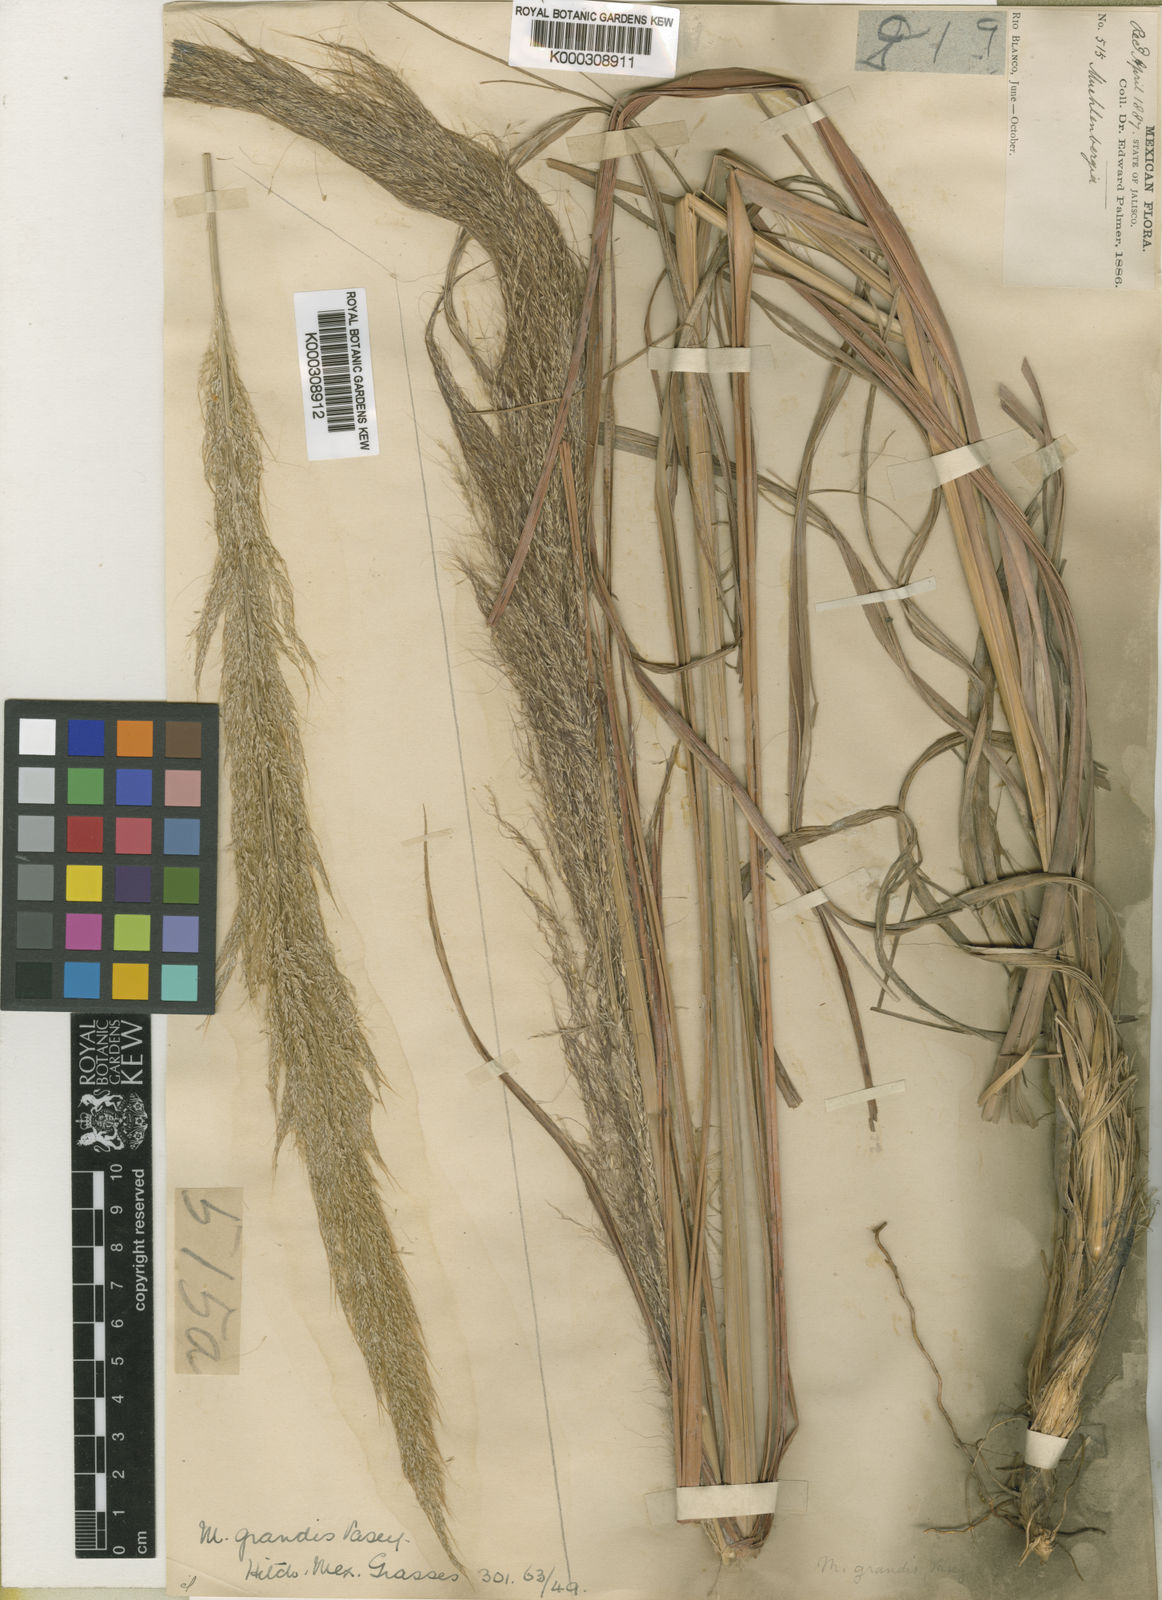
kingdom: Plantae
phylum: Tracheophyta
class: Liliopsida
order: Poales
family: Poaceae
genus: Muhlenbergia
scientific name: Muhlenbergia grandis
